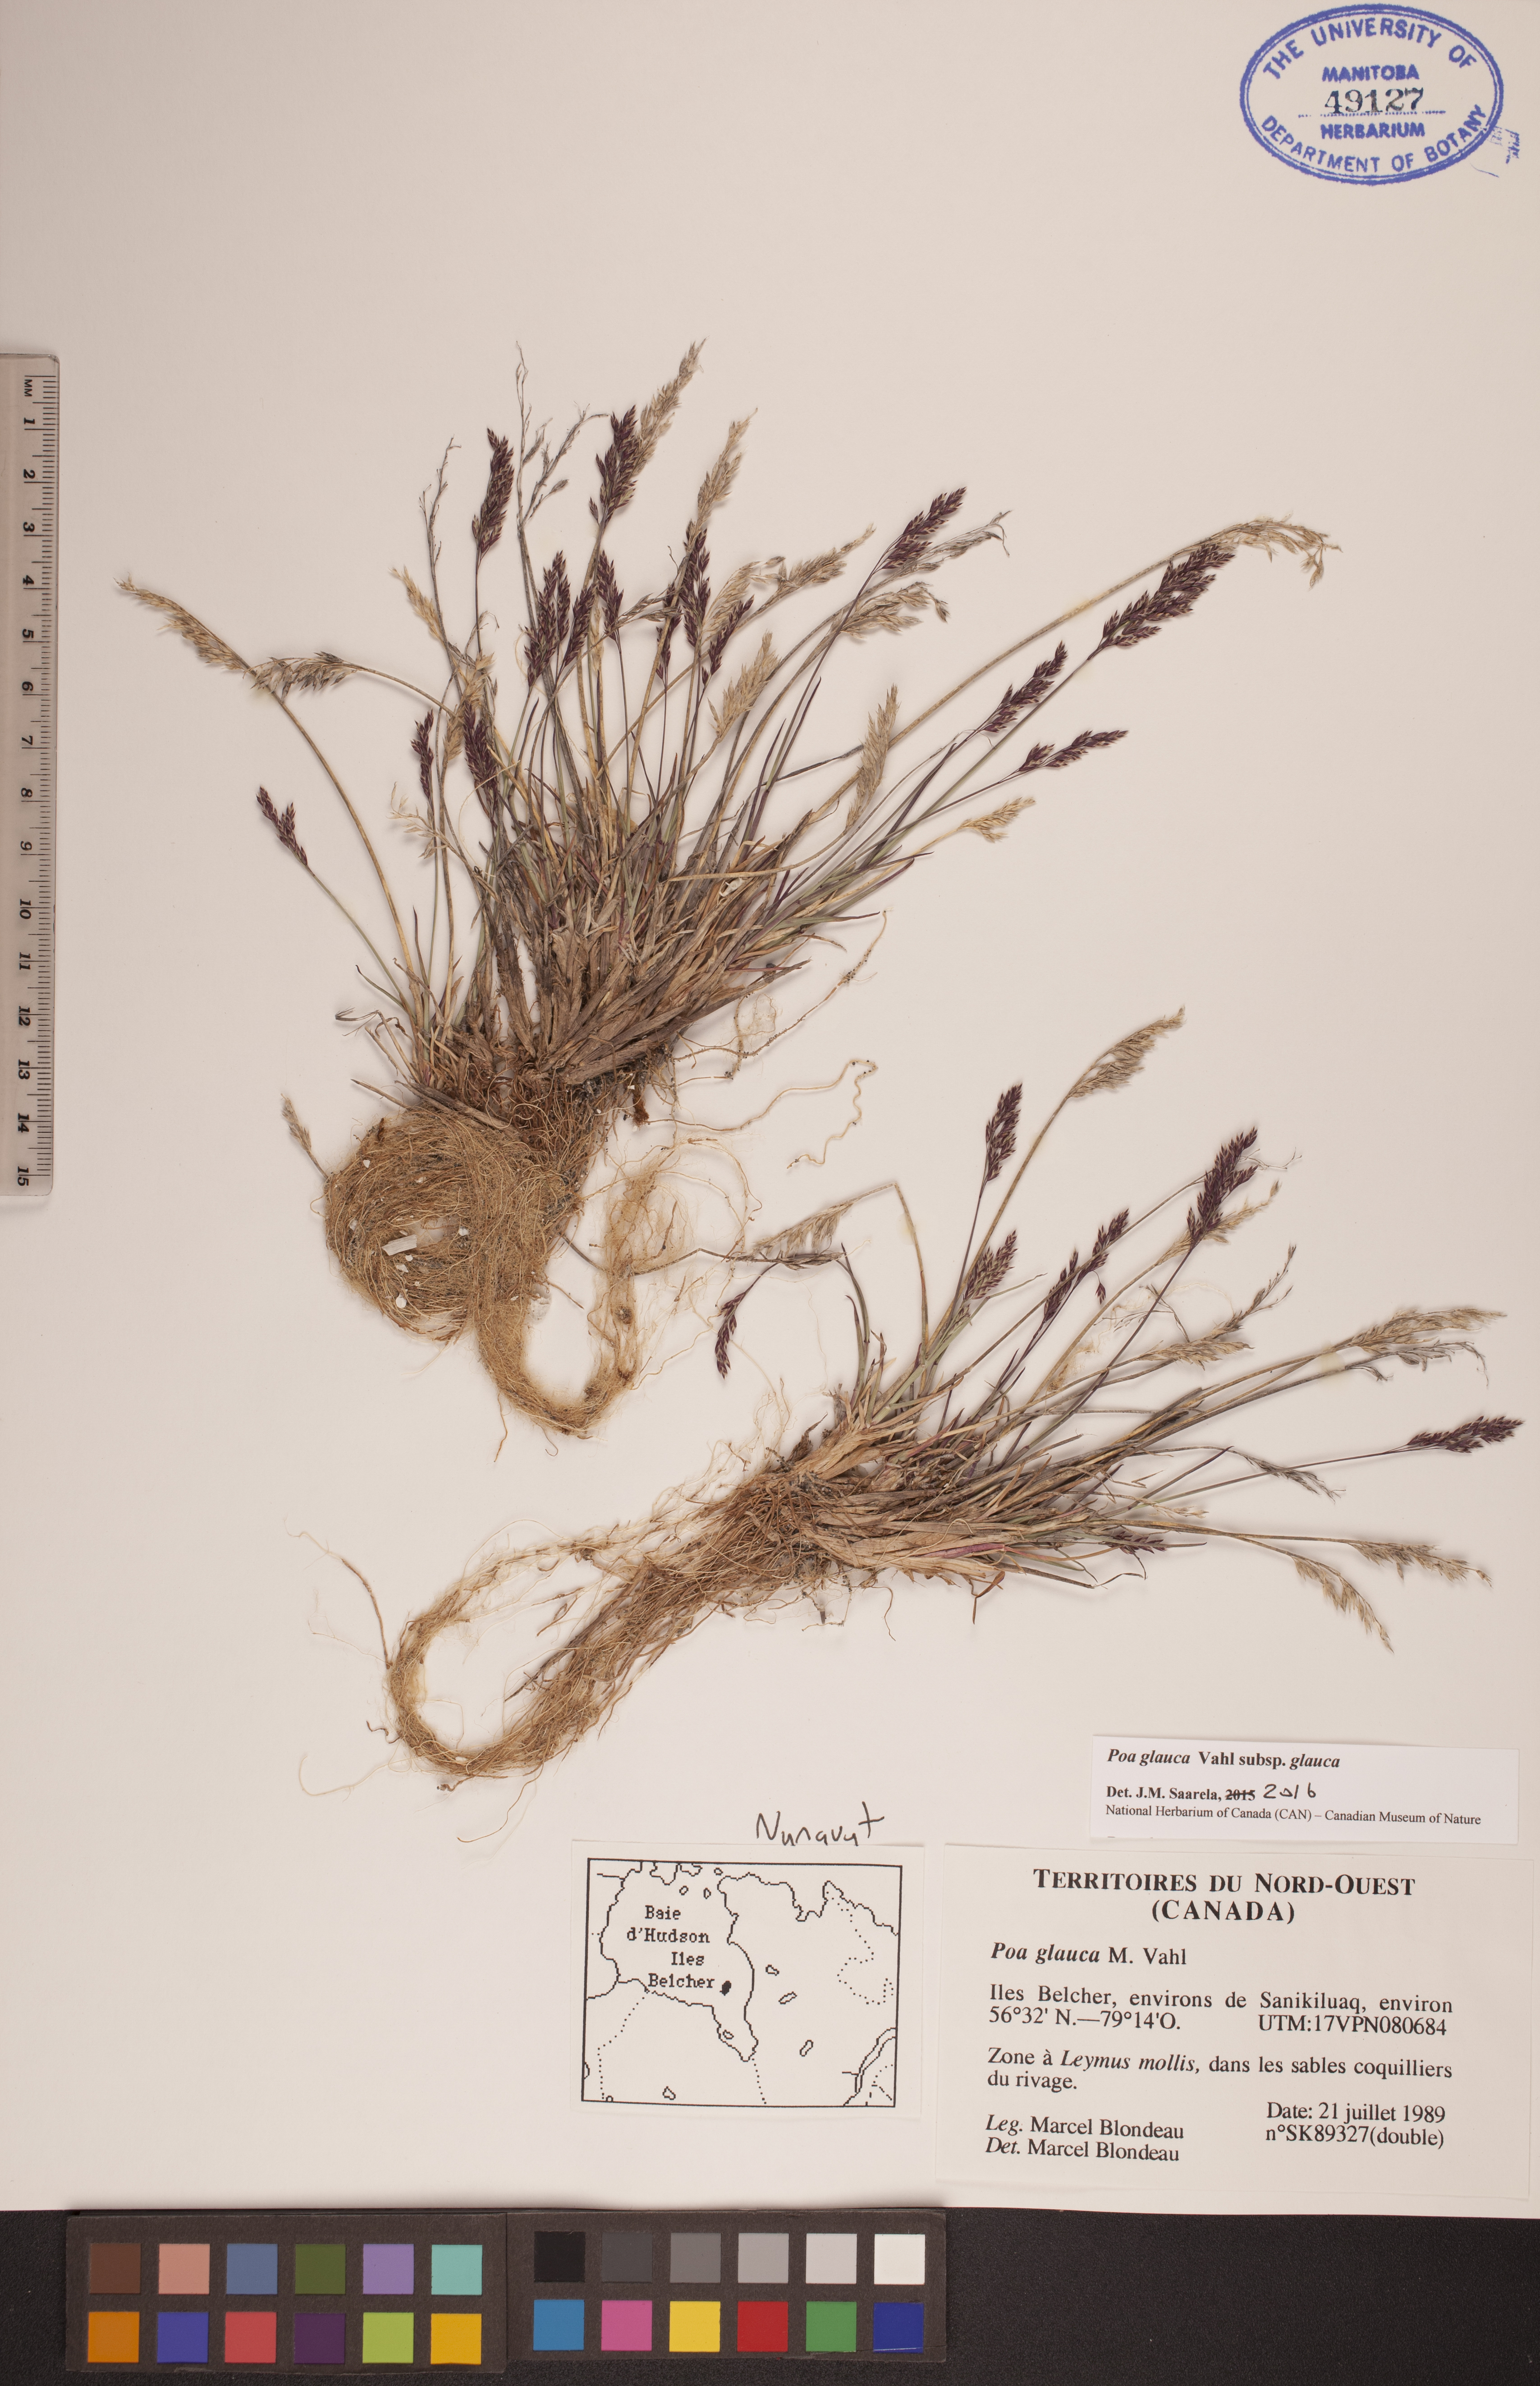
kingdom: Plantae
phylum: Tracheophyta
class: Liliopsida
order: Poales
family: Poaceae
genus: Poa
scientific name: Poa glauca
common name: Glaucous bluegrass
